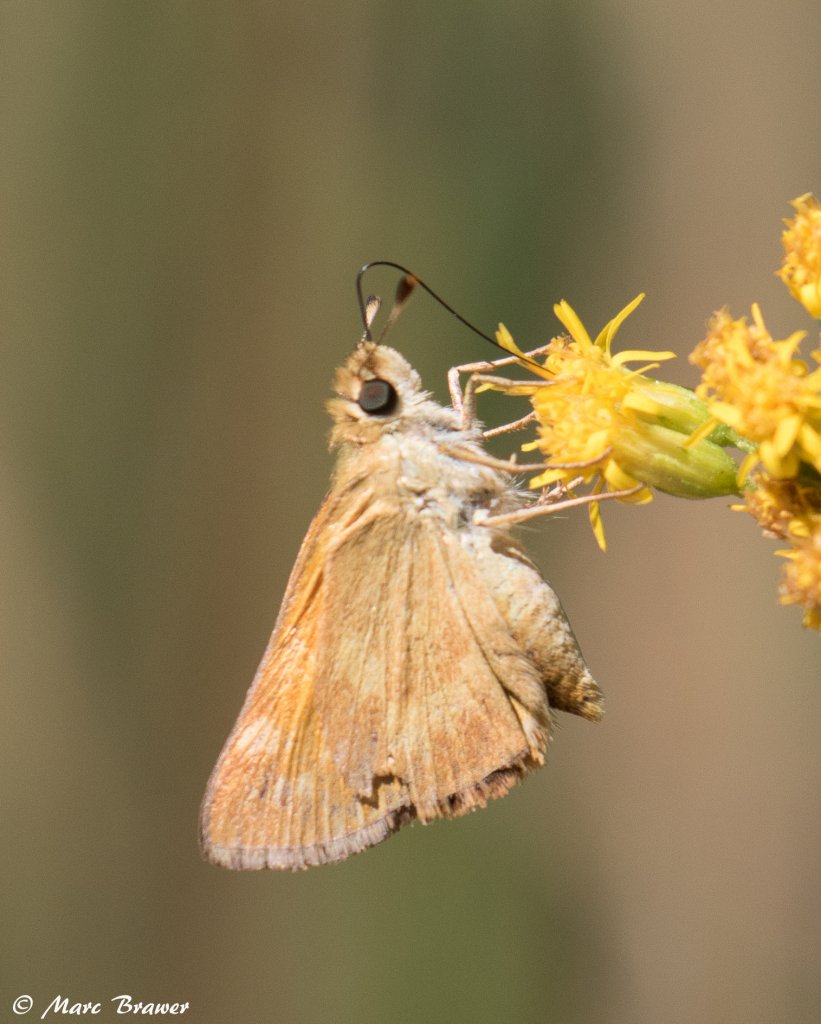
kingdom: Animalia
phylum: Arthropoda
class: Insecta
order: Lepidoptera
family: Hesperiidae
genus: Ochlodes
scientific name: Ochlodes sylvanoides
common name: Woodland Skipper
